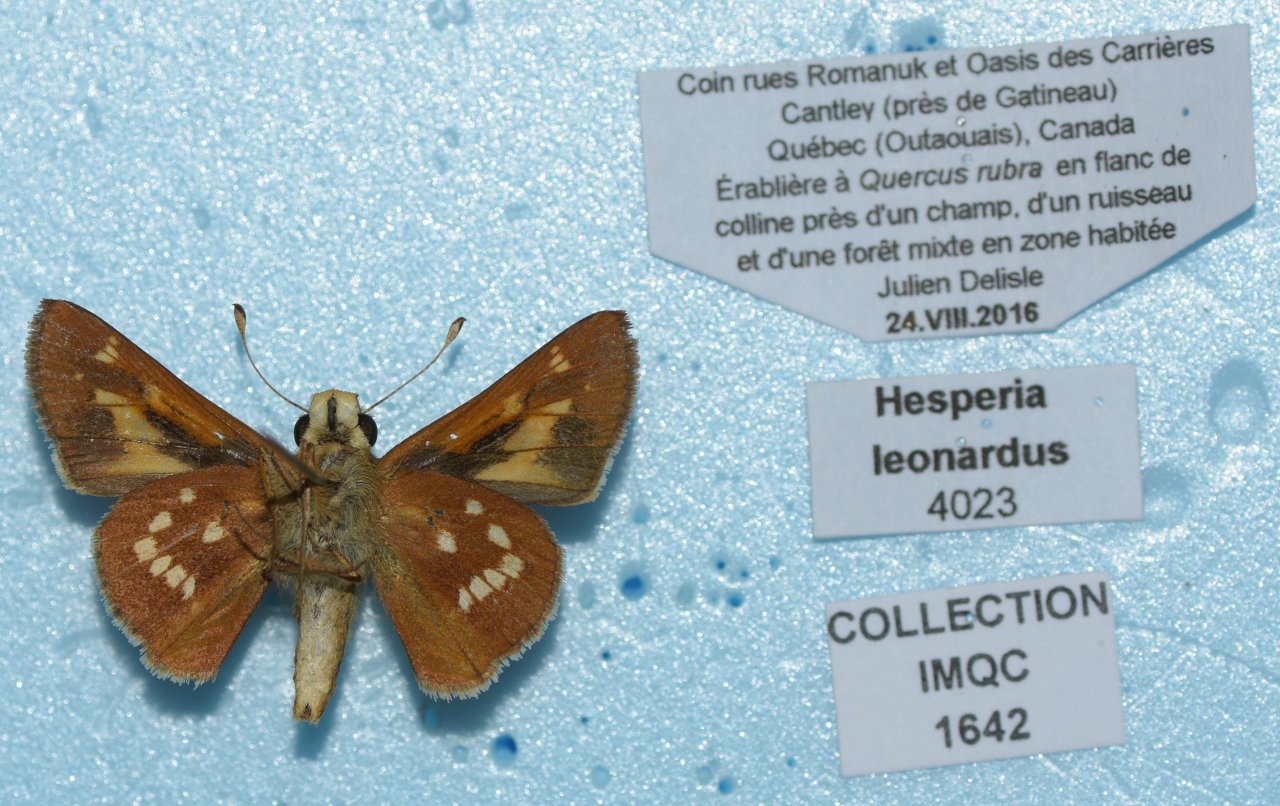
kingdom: Animalia
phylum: Arthropoda
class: Insecta
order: Lepidoptera
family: Hesperiidae
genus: Hesperia
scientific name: Hesperia leonardus
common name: Leonard's Skipper
